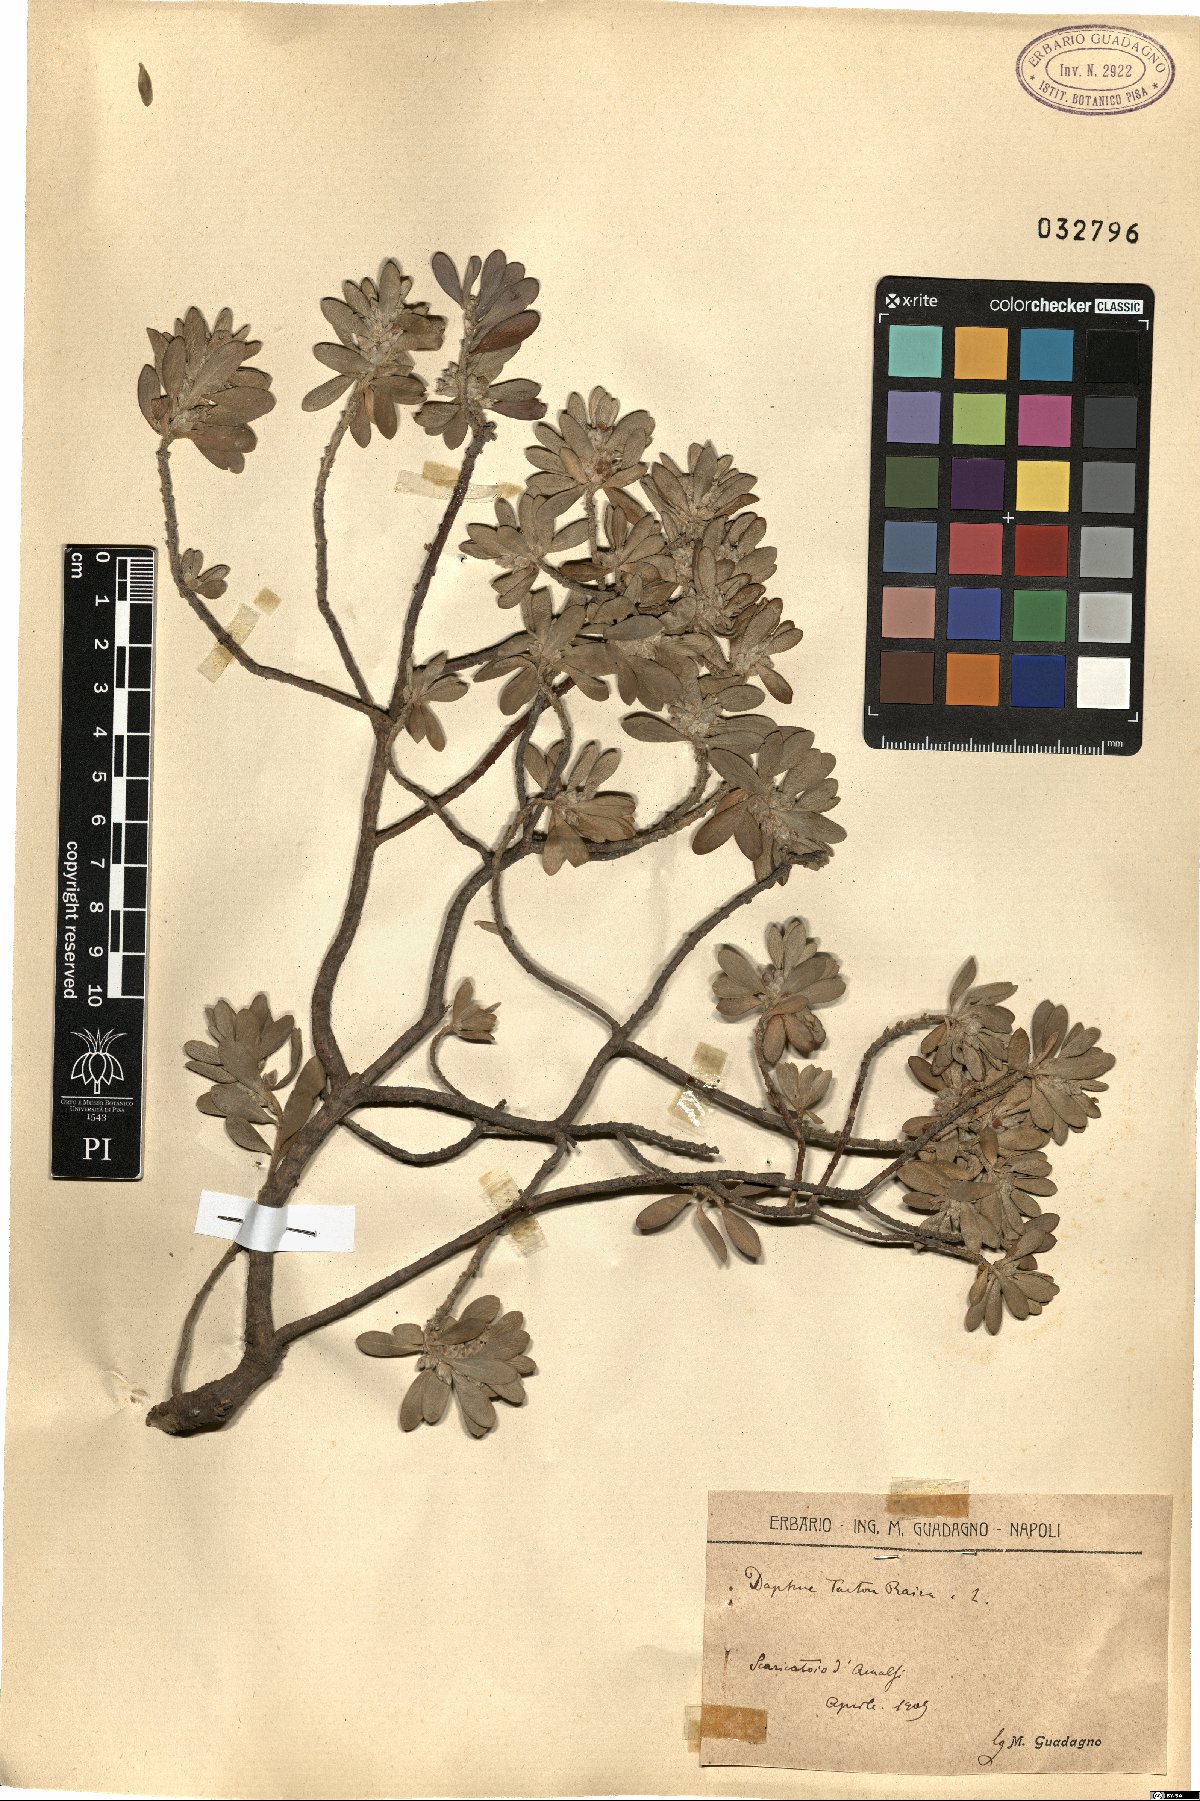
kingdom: Plantae
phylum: Tracheophyta
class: Magnoliopsida
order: Malvales
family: Thymelaeaceae
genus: Thymelaea
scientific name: Thymelaea tartonraira
